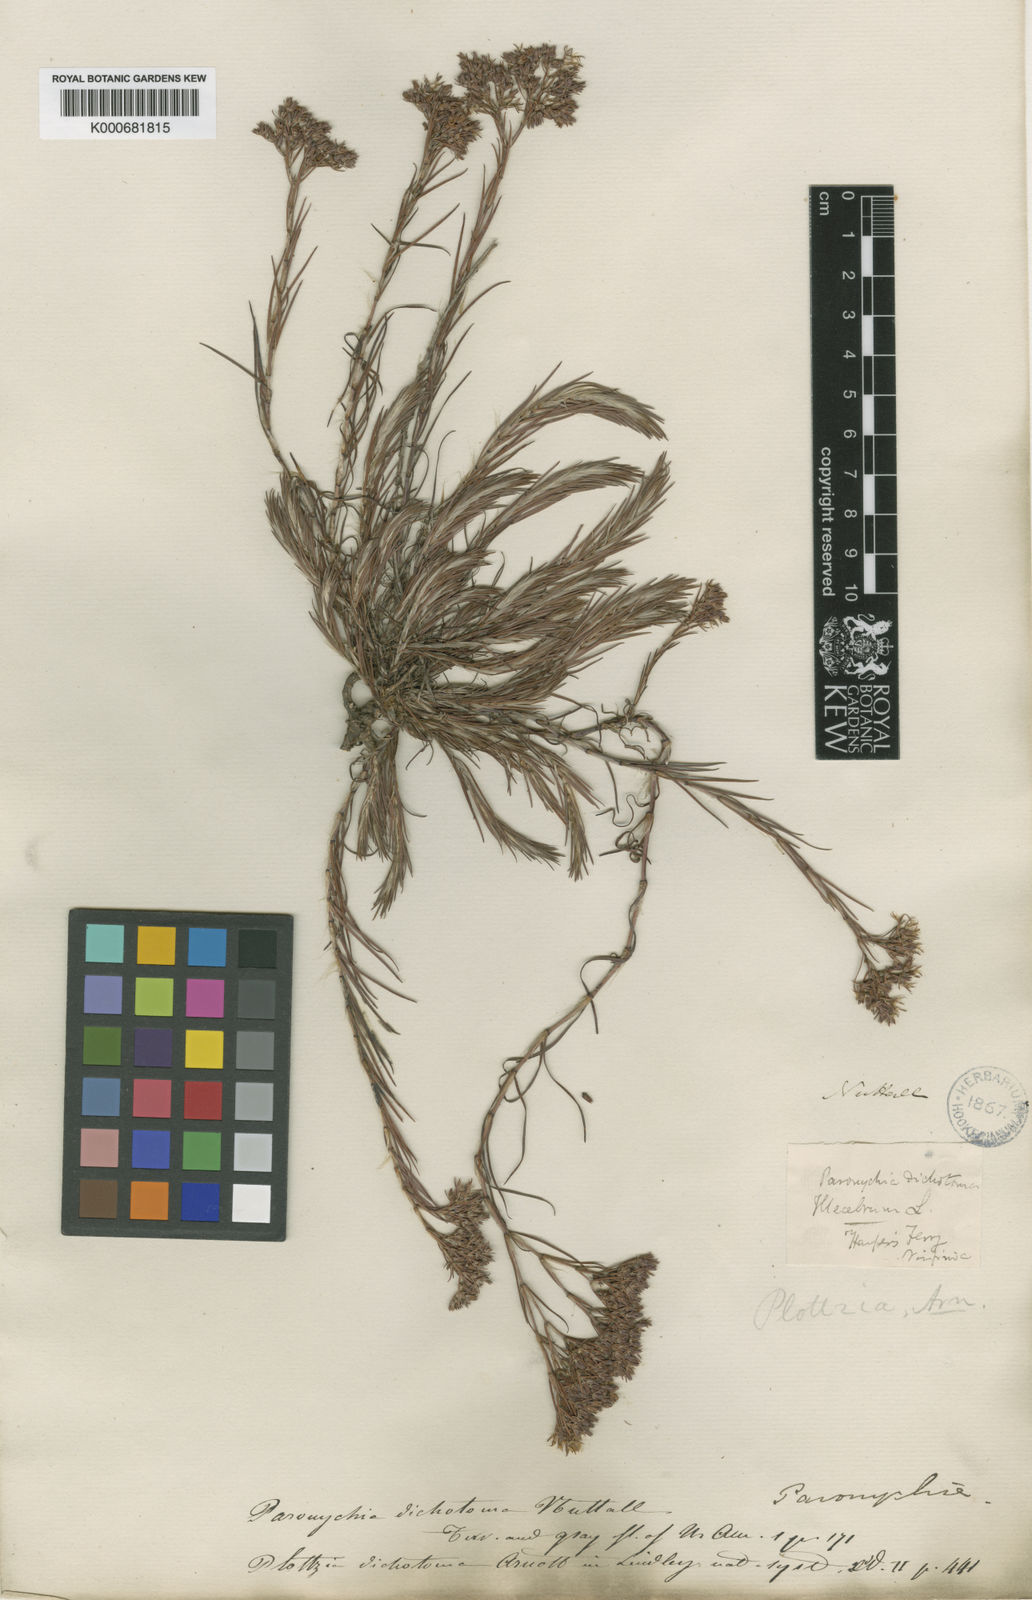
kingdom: Plantae
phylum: Tracheophyta
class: Magnoliopsida
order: Caryophyllales
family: Caryophyllaceae
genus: Paronychia
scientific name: Paronychia
